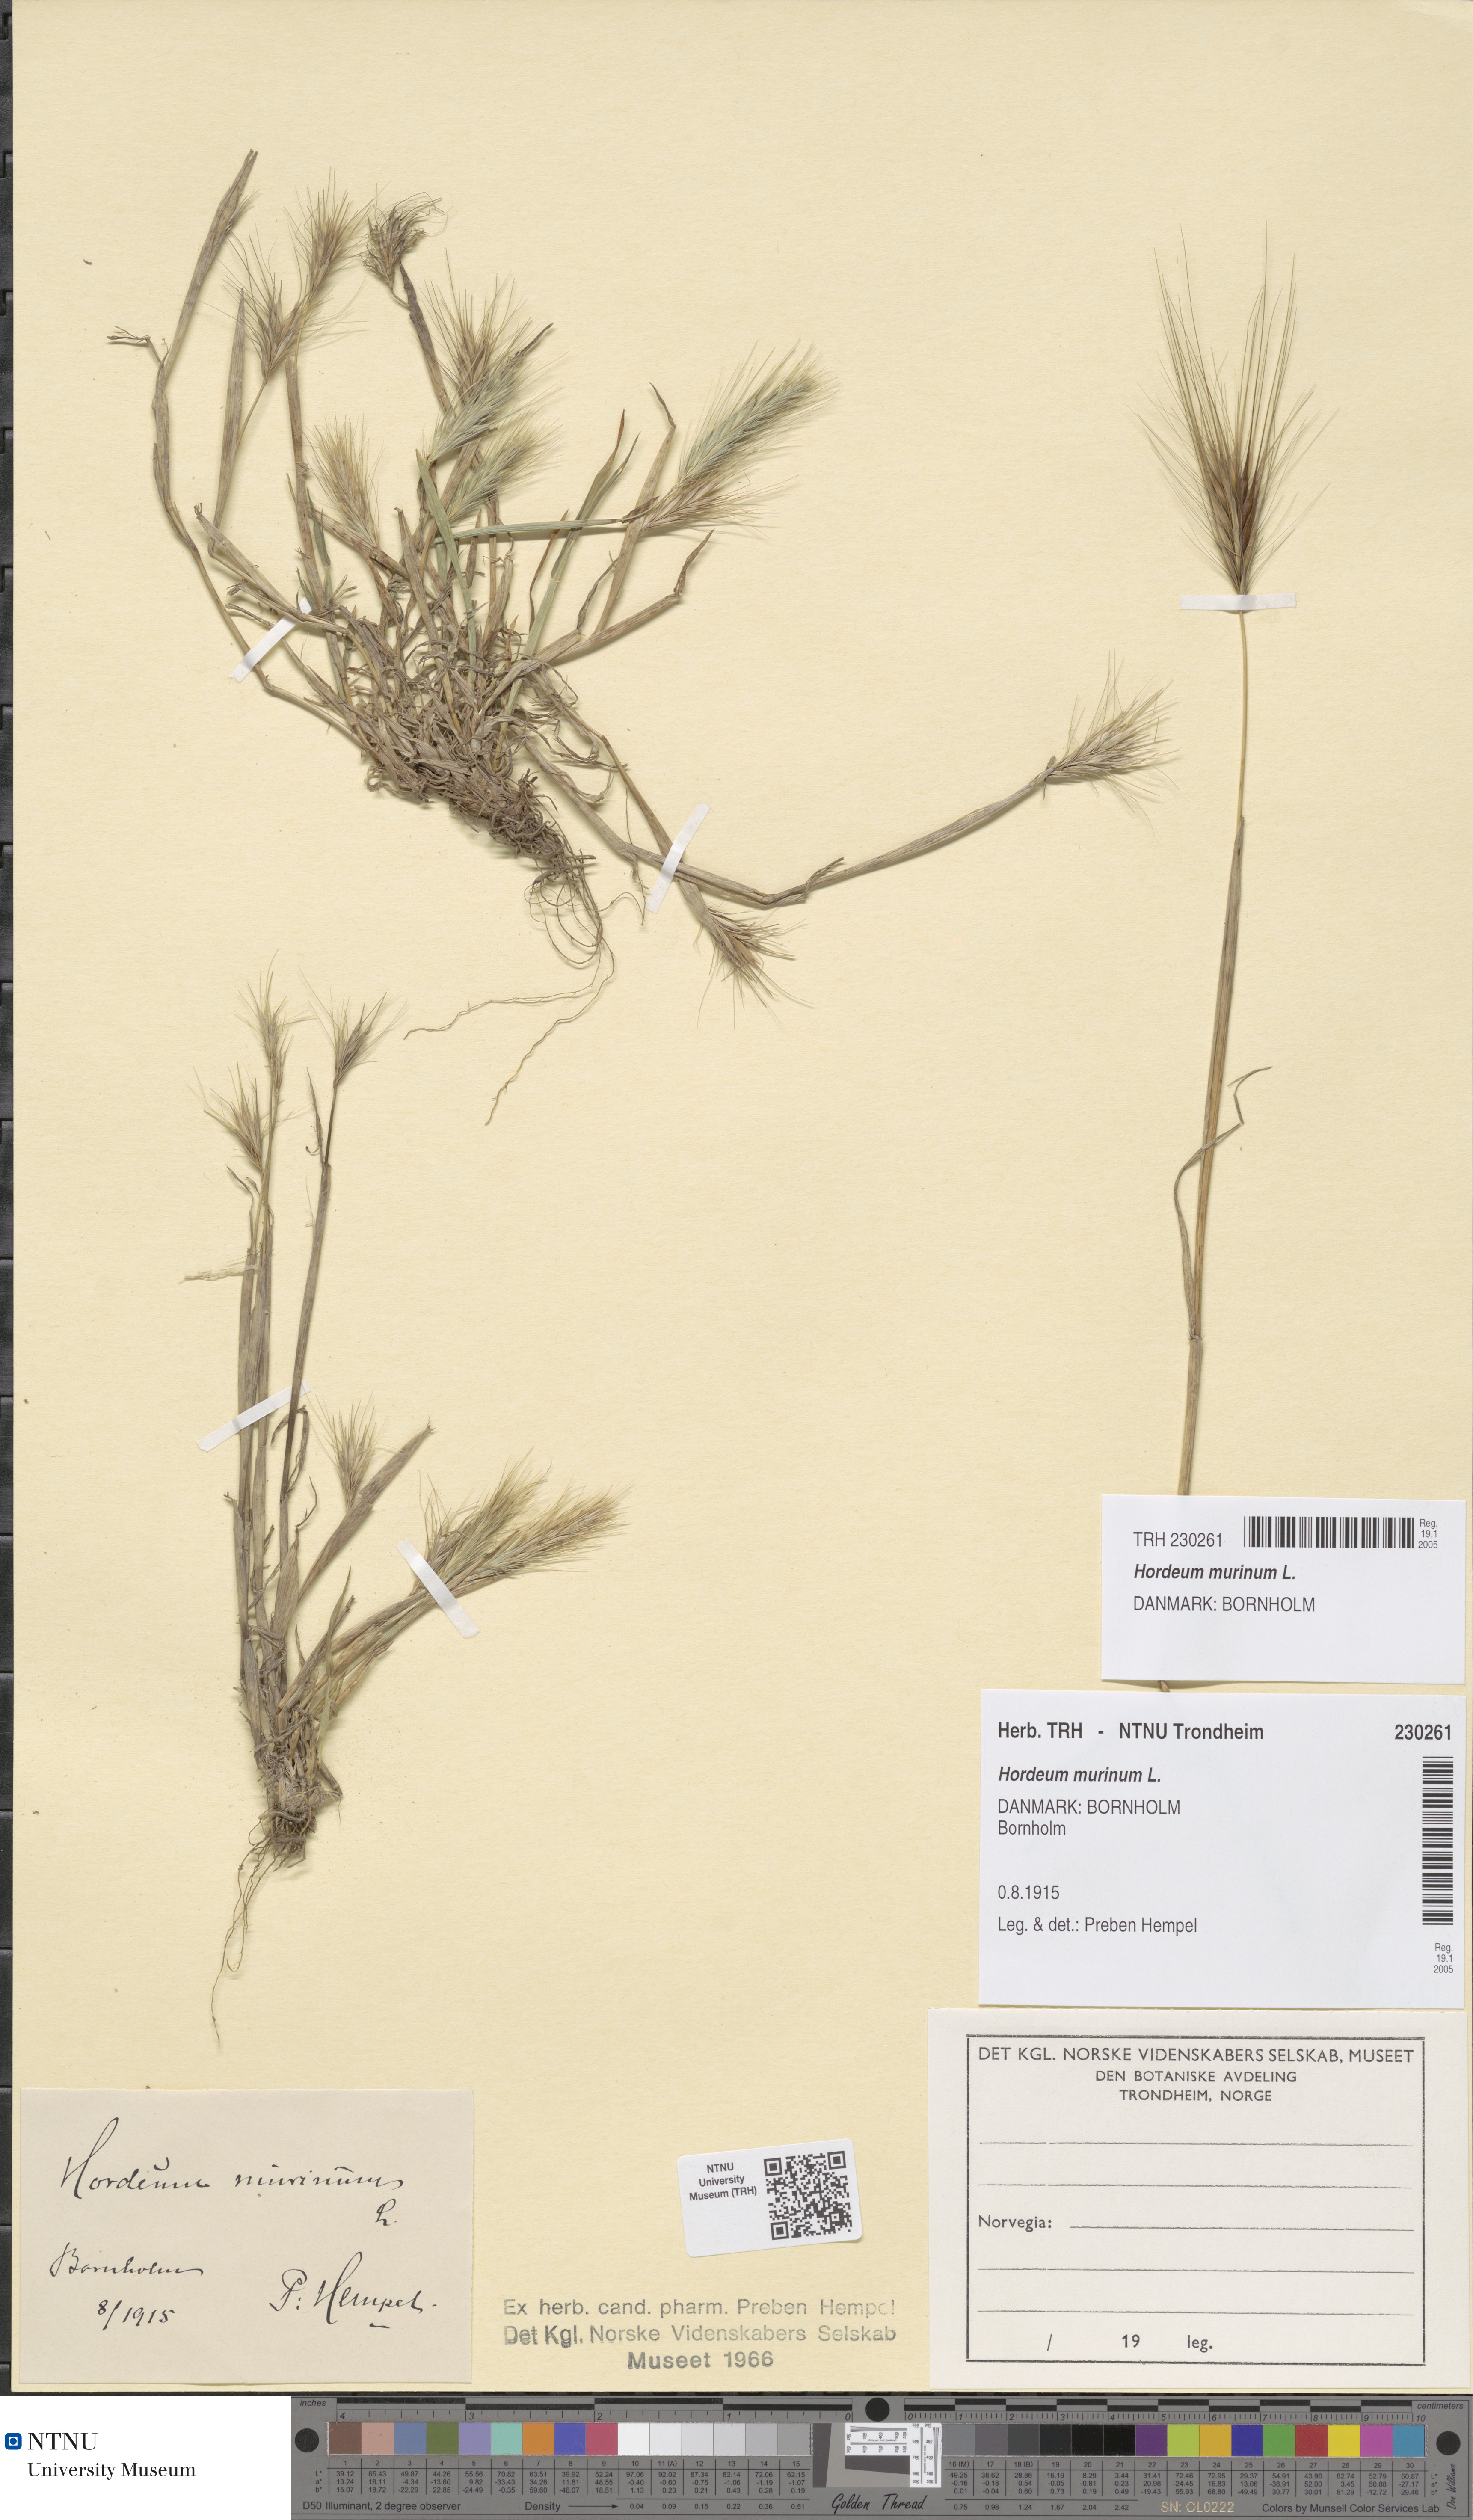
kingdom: Plantae
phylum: Tracheophyta
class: Liliopsida
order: Poales
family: Poaceae
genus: Hordeum
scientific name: Hordeum murinum
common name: Wall barley
